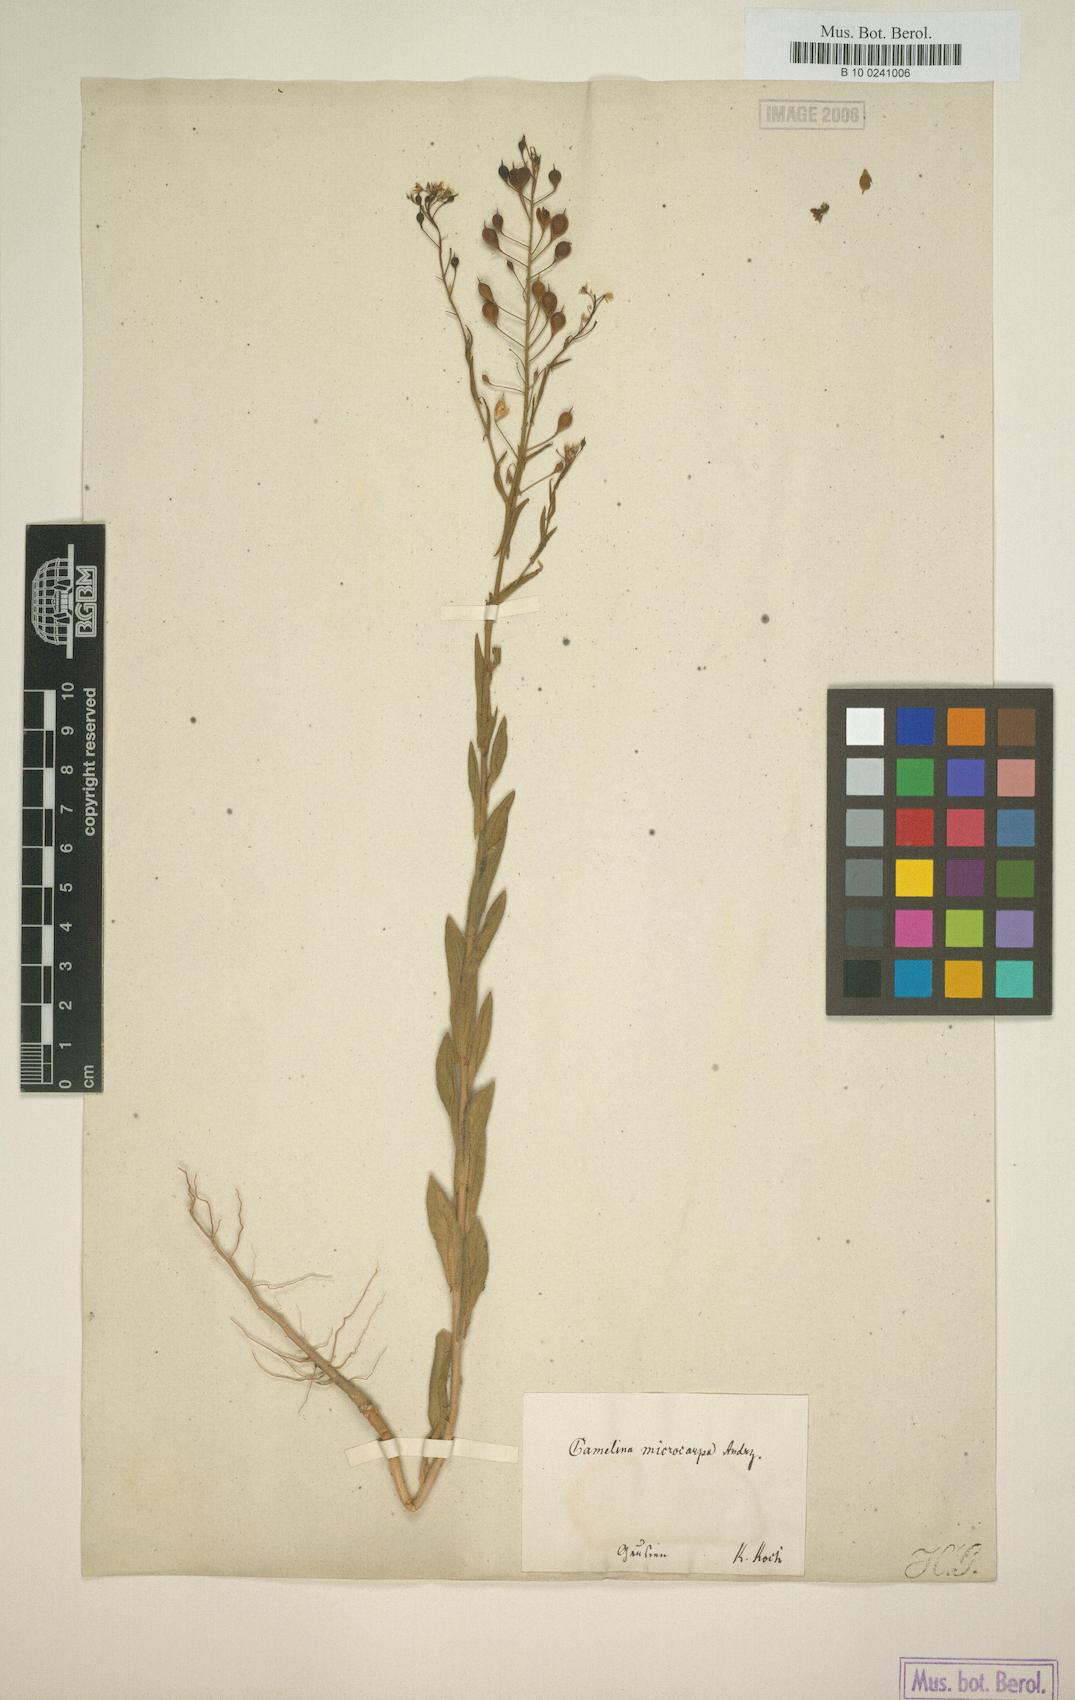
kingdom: Plantae
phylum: Tracheophyta
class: Magnoliopsida
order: Brassicales
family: Brassicaceae
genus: Camelina
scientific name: Camelina microcarpa
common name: Lesser gold-of-pleasure
